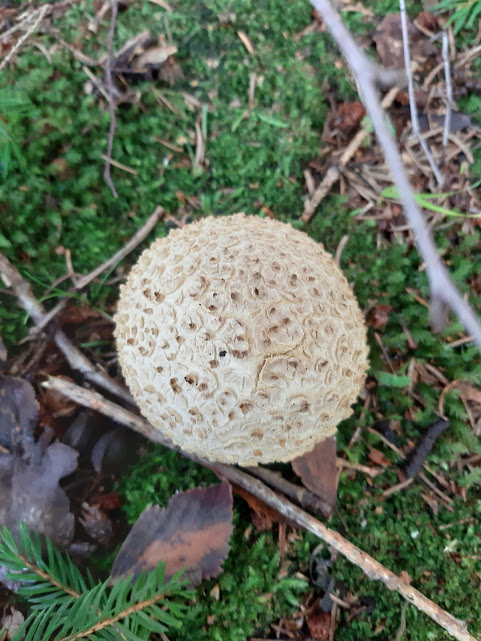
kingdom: Fungi
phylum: Basidiomycota
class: Agaricomycetes
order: Boletales
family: Sclerodermataceae
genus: Scleroderma
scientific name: Scleroderma citrinum
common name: almindelig bruskbold
